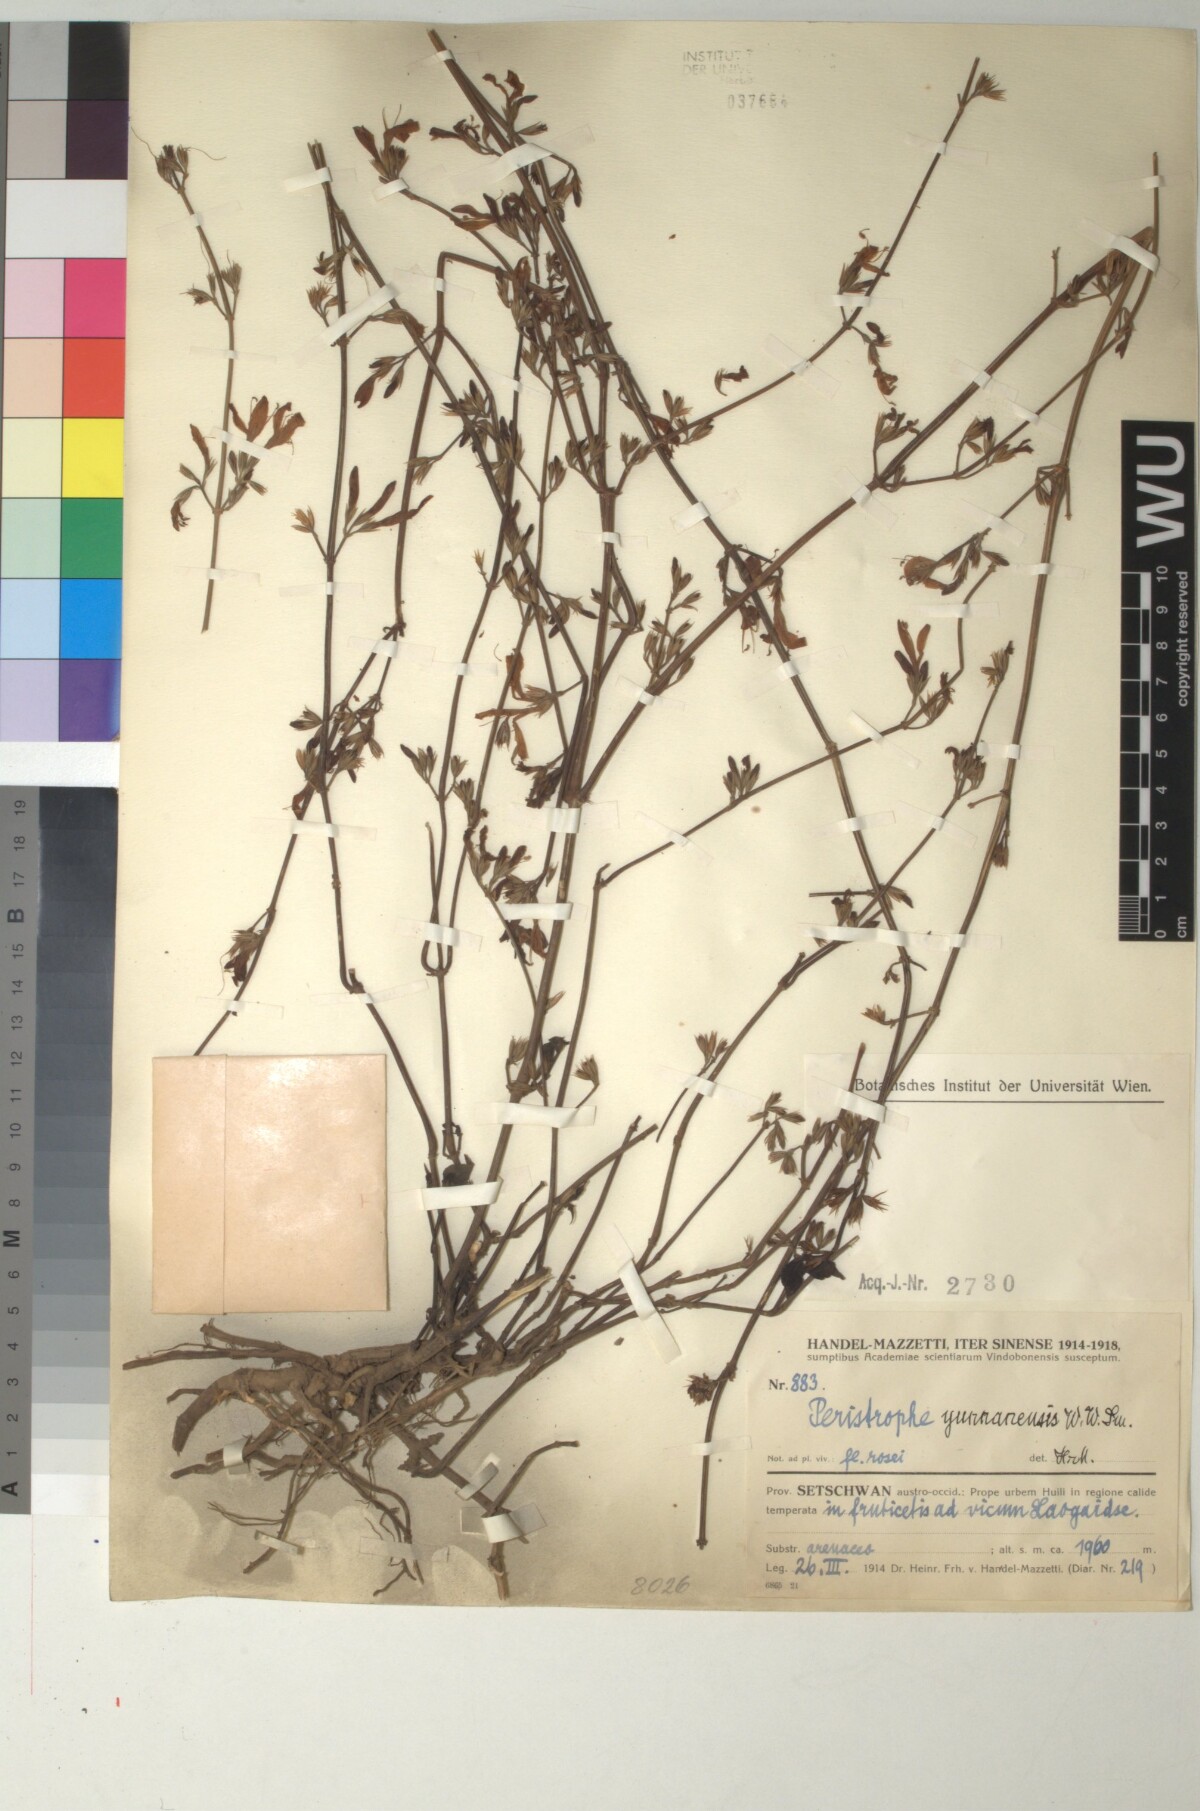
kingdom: Plantae
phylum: Tracheophyta
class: Magnoliopsida
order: Lamiales
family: Acanthaceae
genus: Dicliptera
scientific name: Dicliptera yunnanensis
